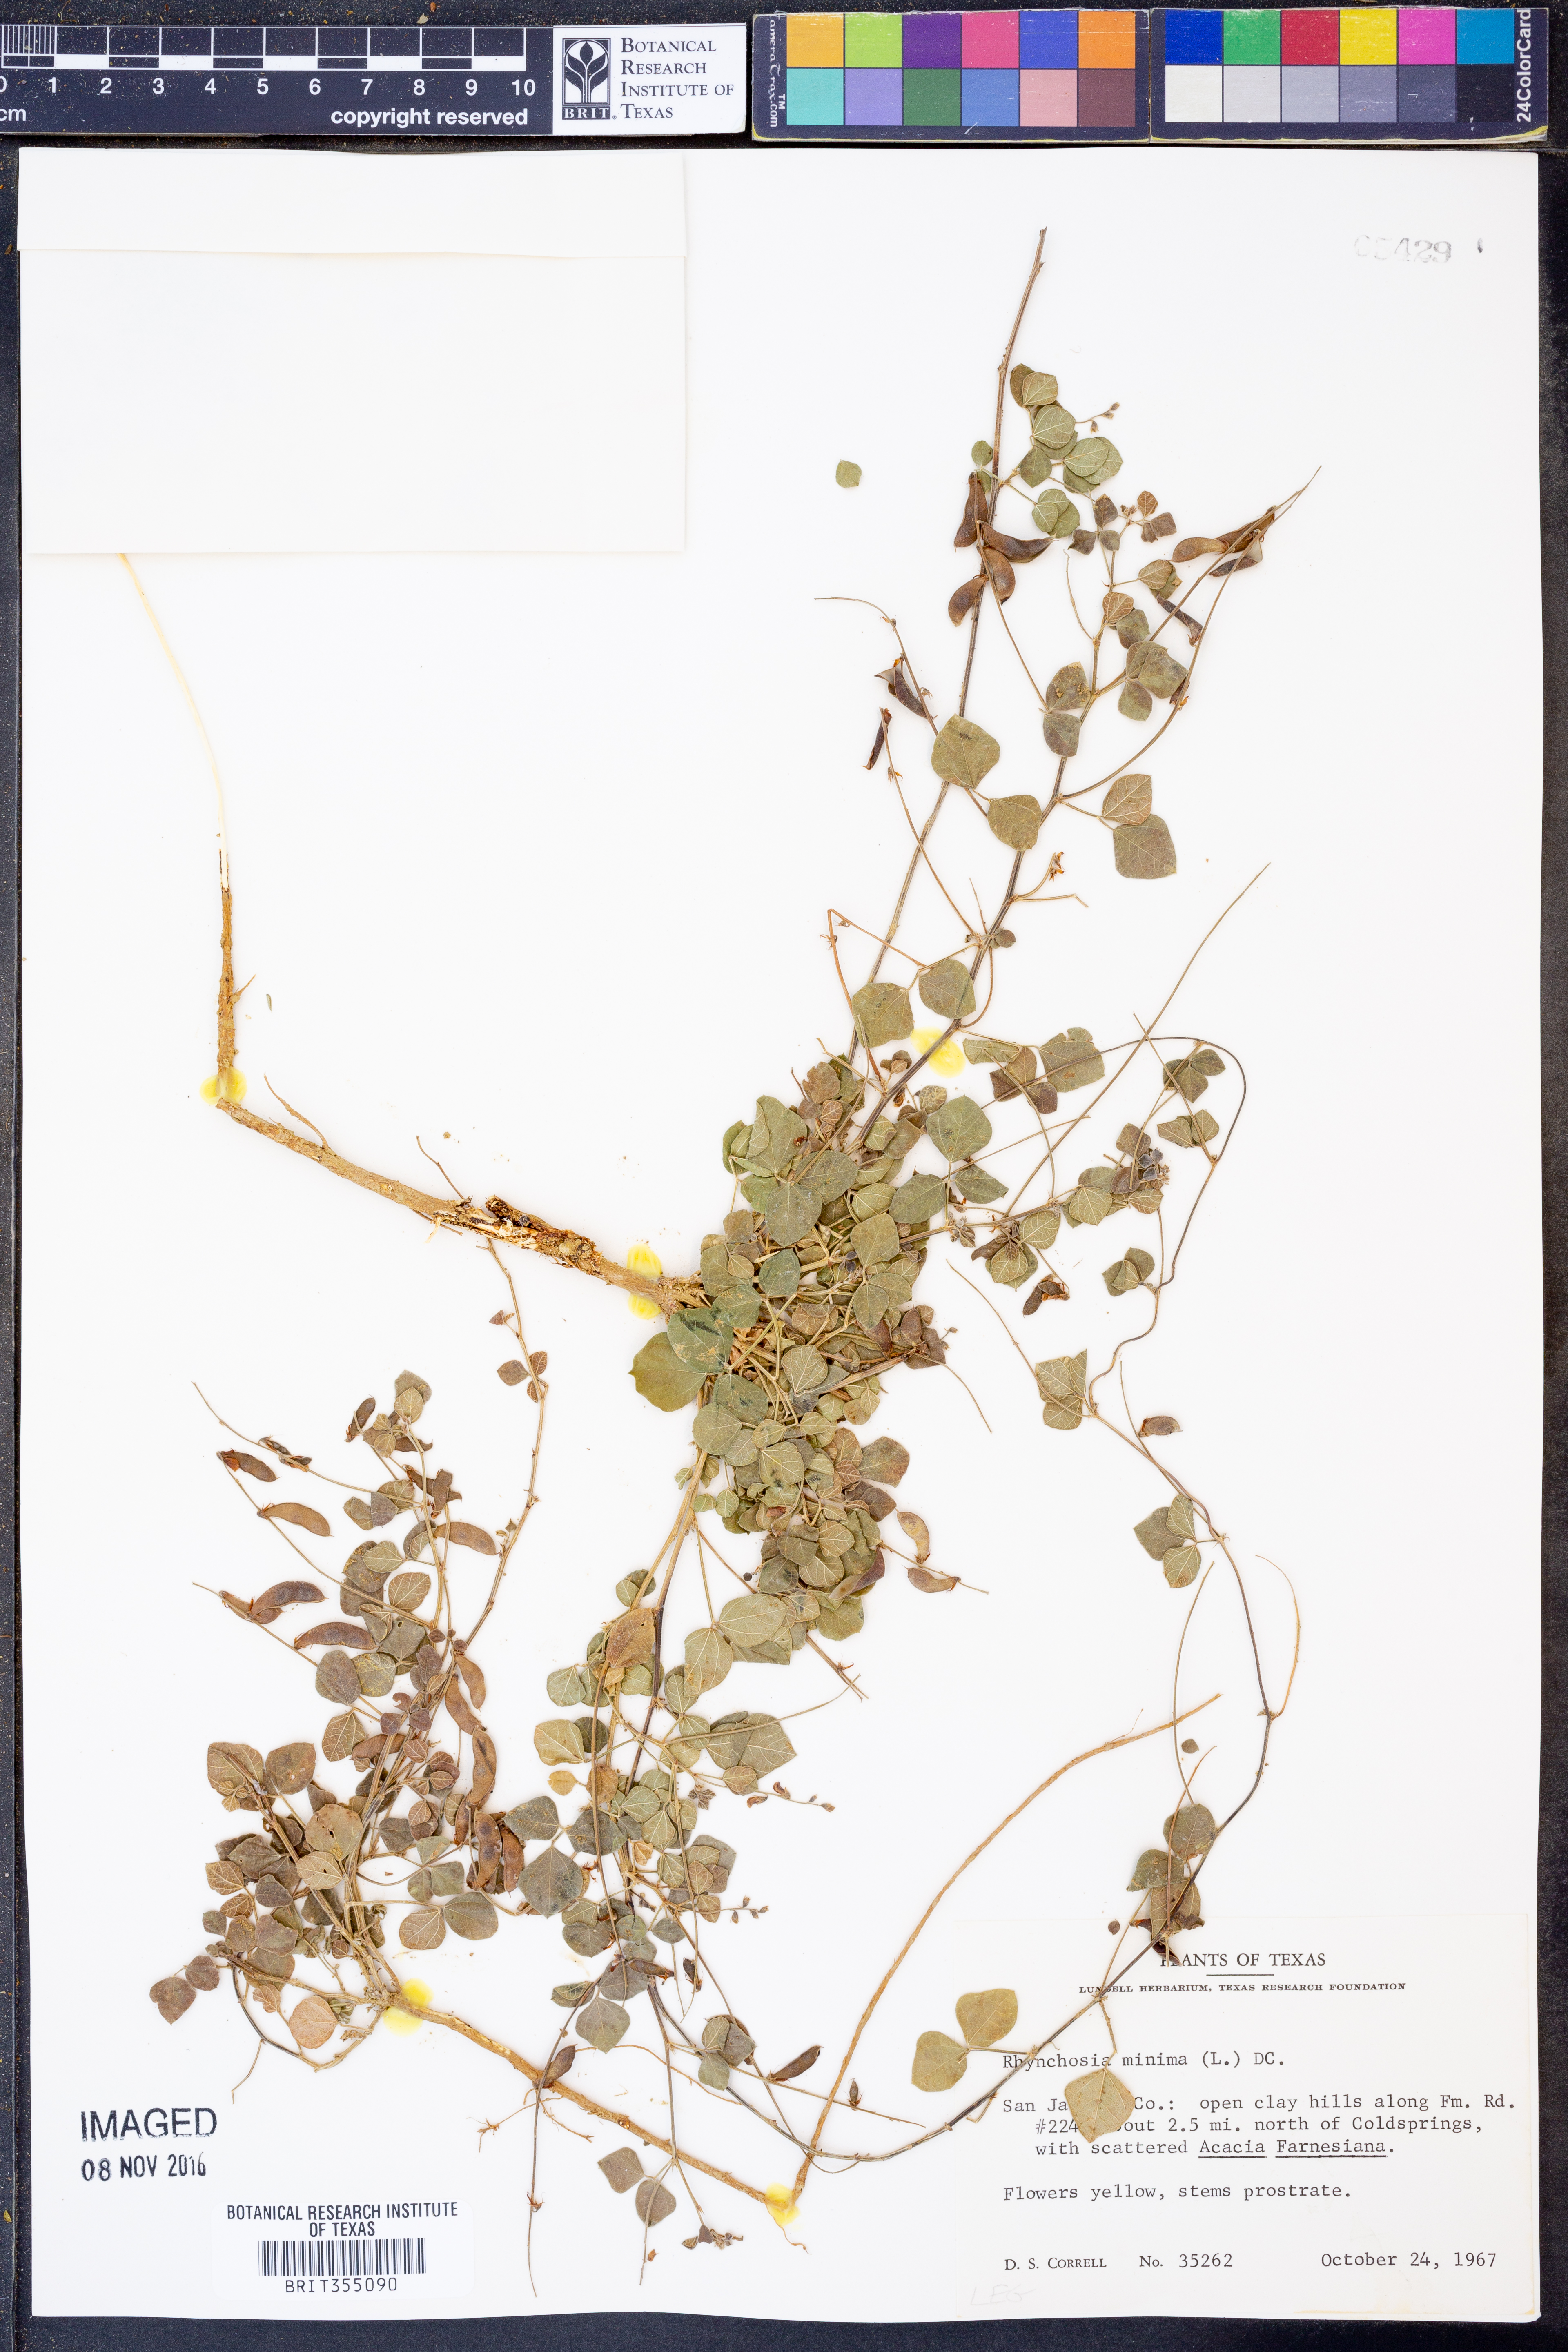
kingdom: Plantae
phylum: Tracheophyta
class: Magnoliopsida
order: Fabales
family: Fabaceae
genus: Rhynchosia
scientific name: Rhynchosia minima
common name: Least snoutbean
